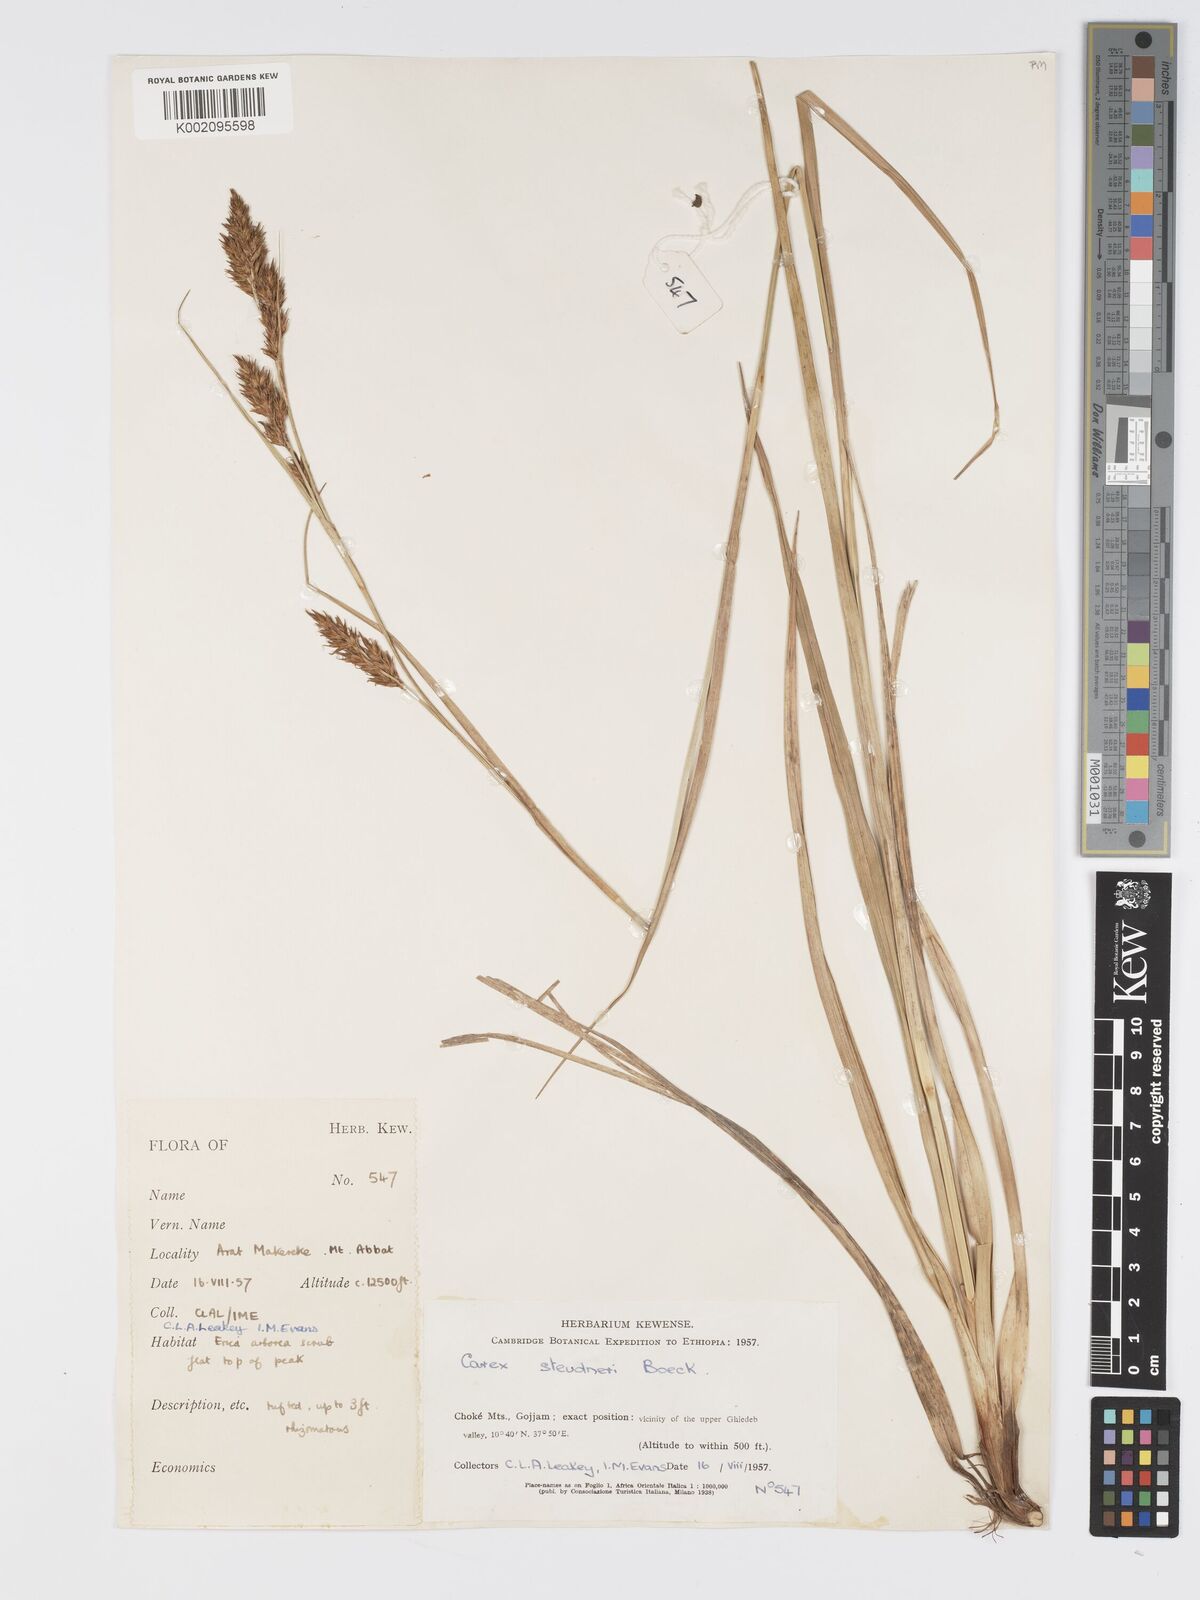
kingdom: Plantae
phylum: Tracheophyta
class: Liliopsida
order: Poales
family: Cyperaceae
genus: Carex
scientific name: Carex steudneri
